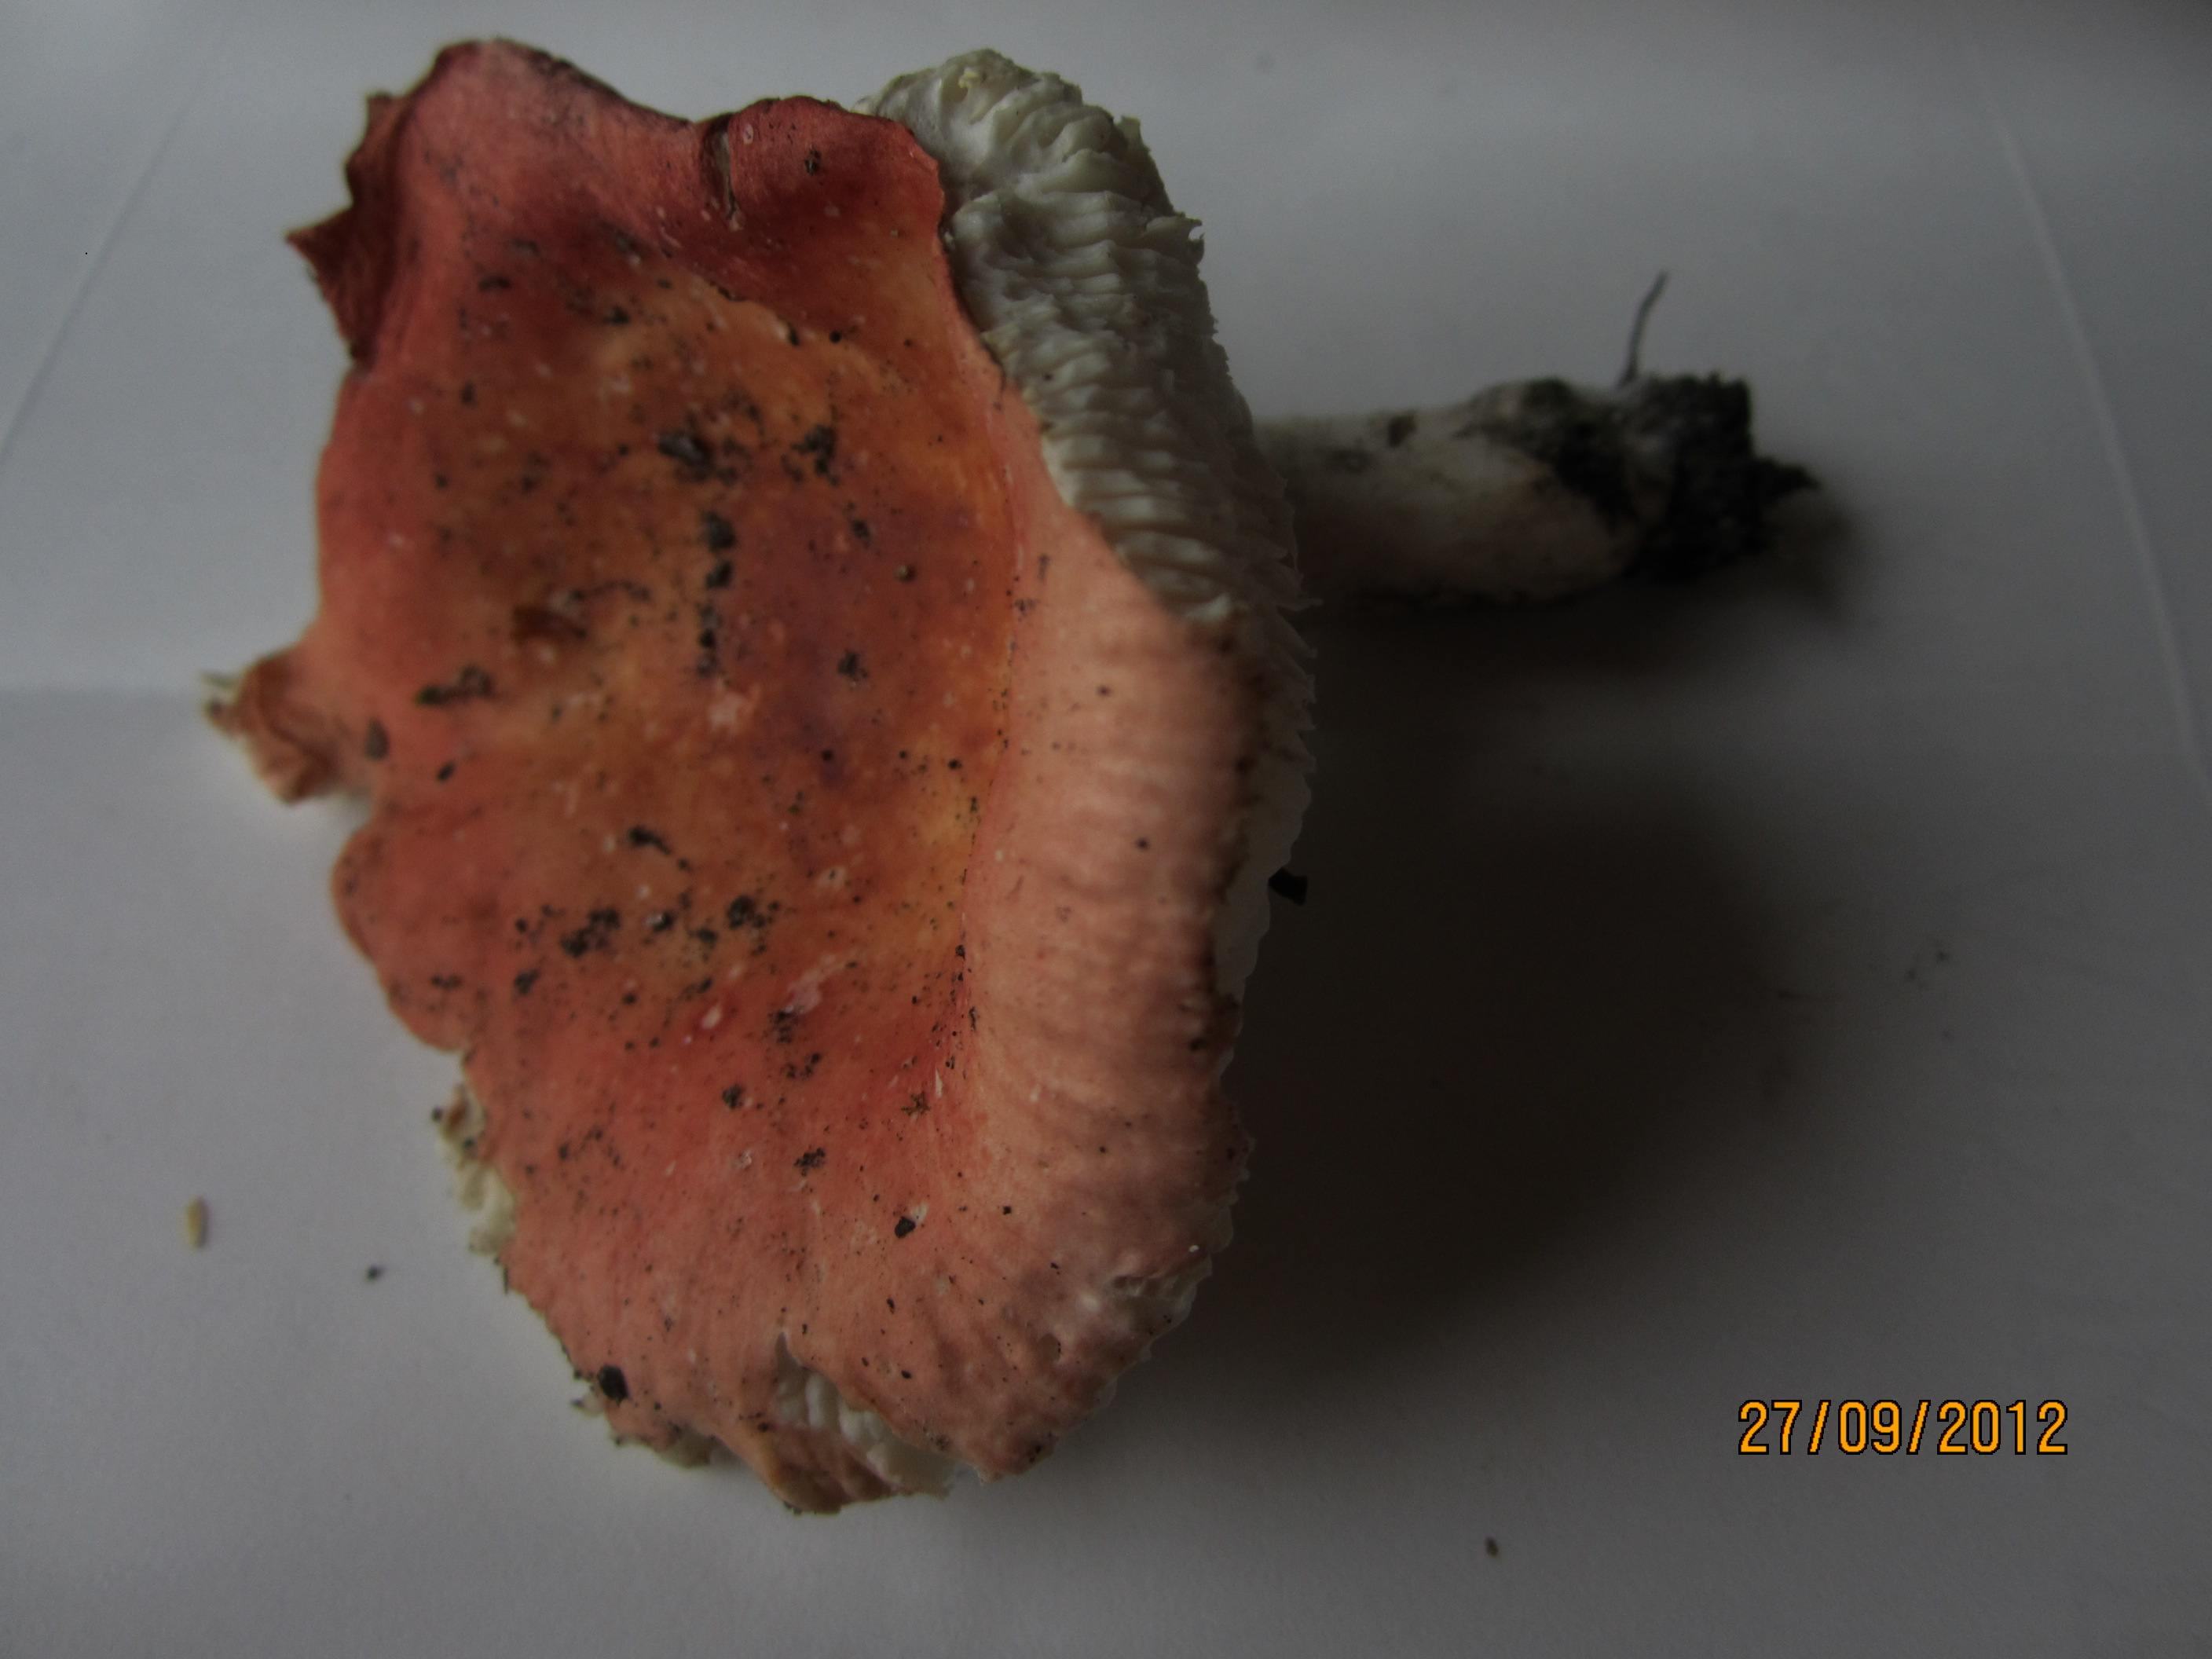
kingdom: Fungi
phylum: Basidiomycota
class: Agaricomycetes
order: Russulales
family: Russulaceae
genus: Russula
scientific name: Russula aurora
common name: rosa skørhat
